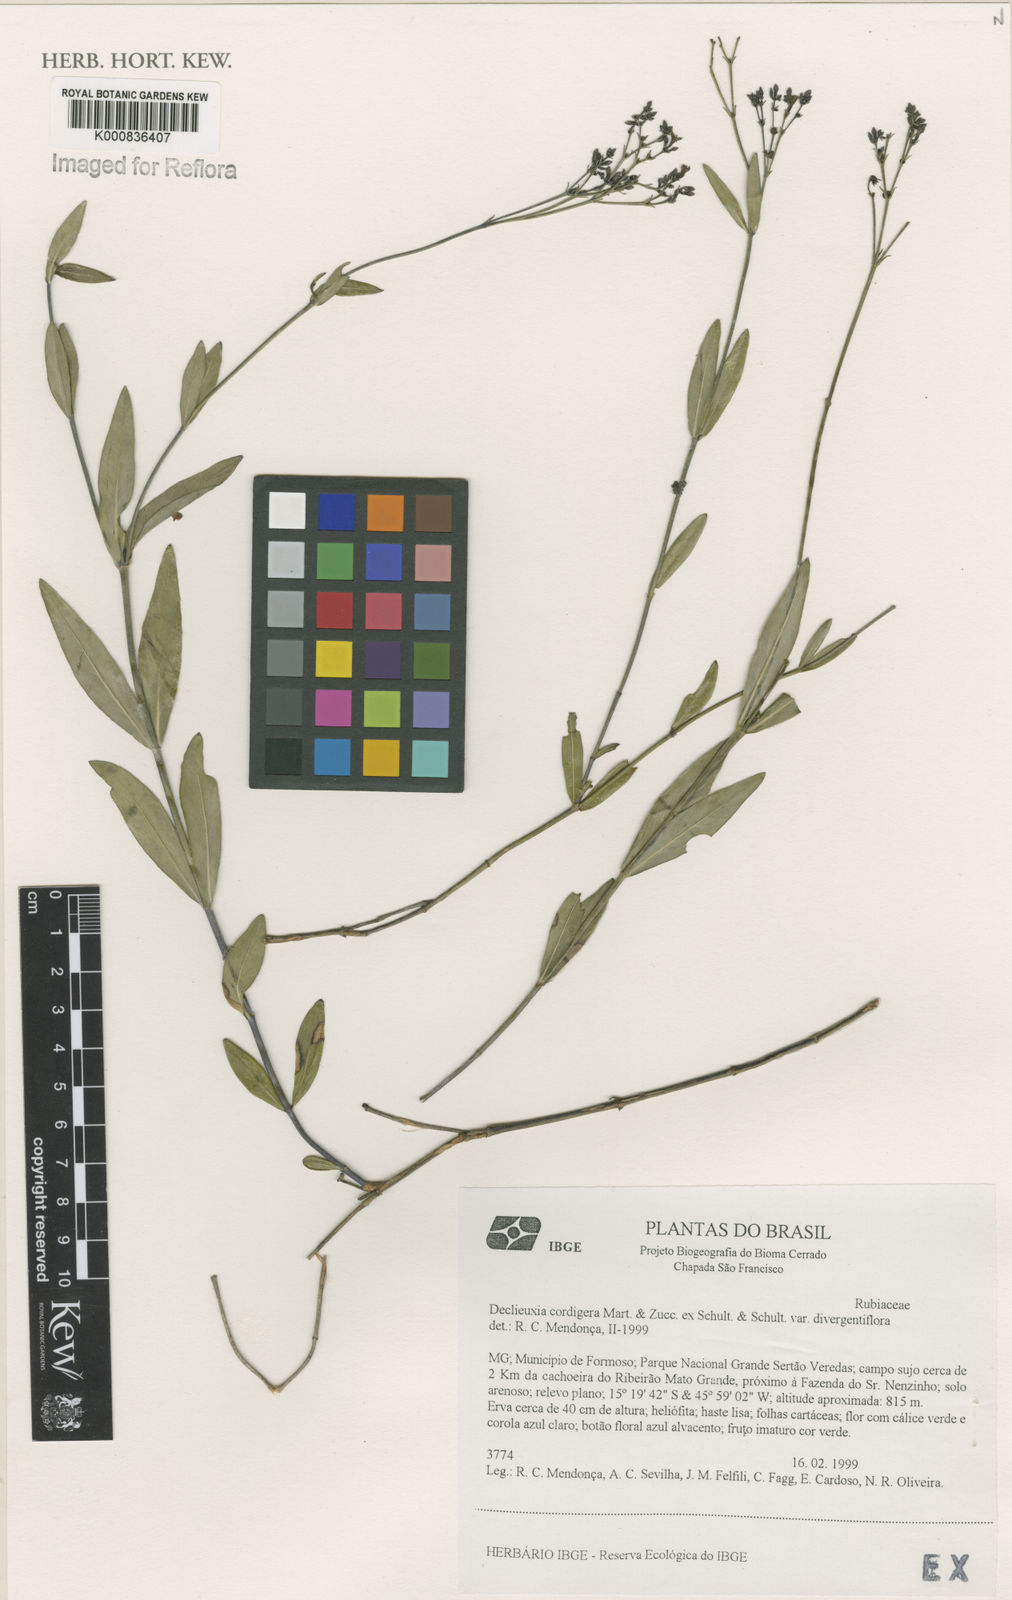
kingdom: Plantae
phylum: Tracheophyta
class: Magnoliopsida
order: Gentianales
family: Rubiaceae
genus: Declieuxia
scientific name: Declieuxia
